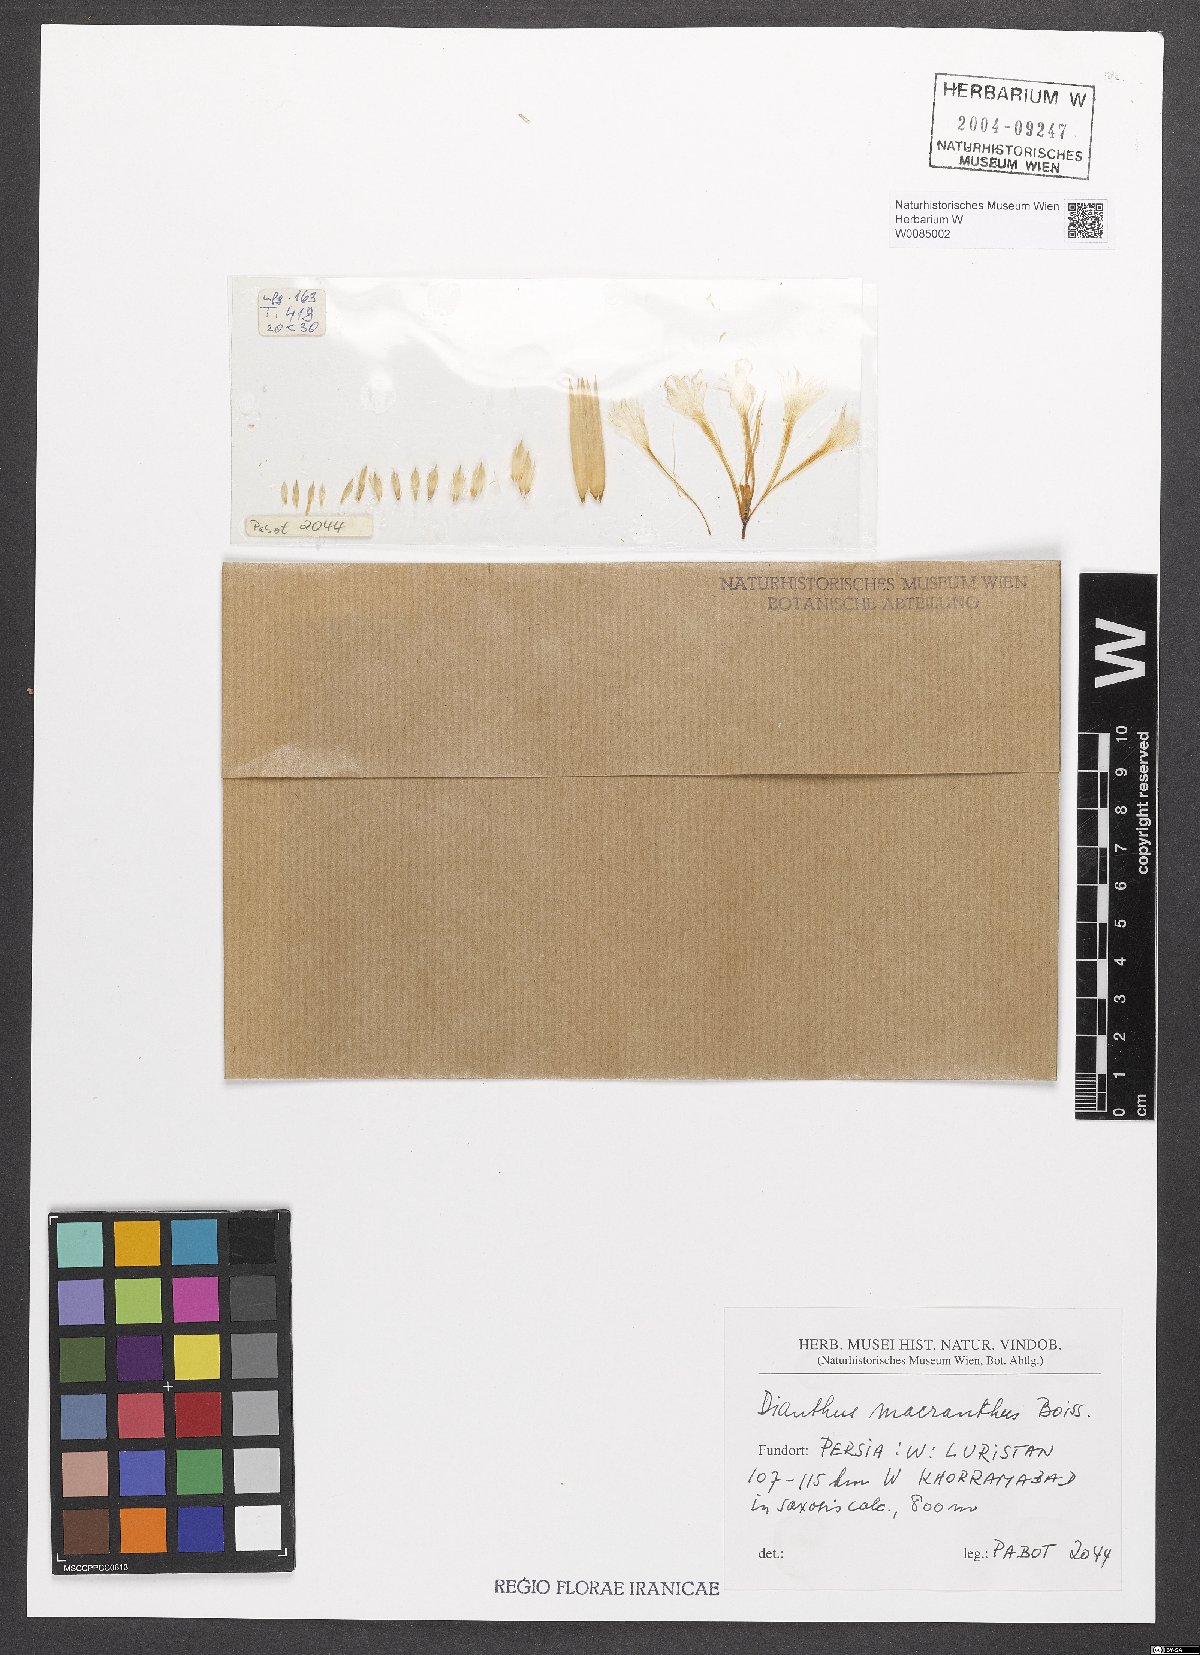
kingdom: Plantae
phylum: Tracheophyta
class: Magnoliopsida
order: Caryophyllales
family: Caryophyllaceae
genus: Dianthus
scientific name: Dianthus macranthus
